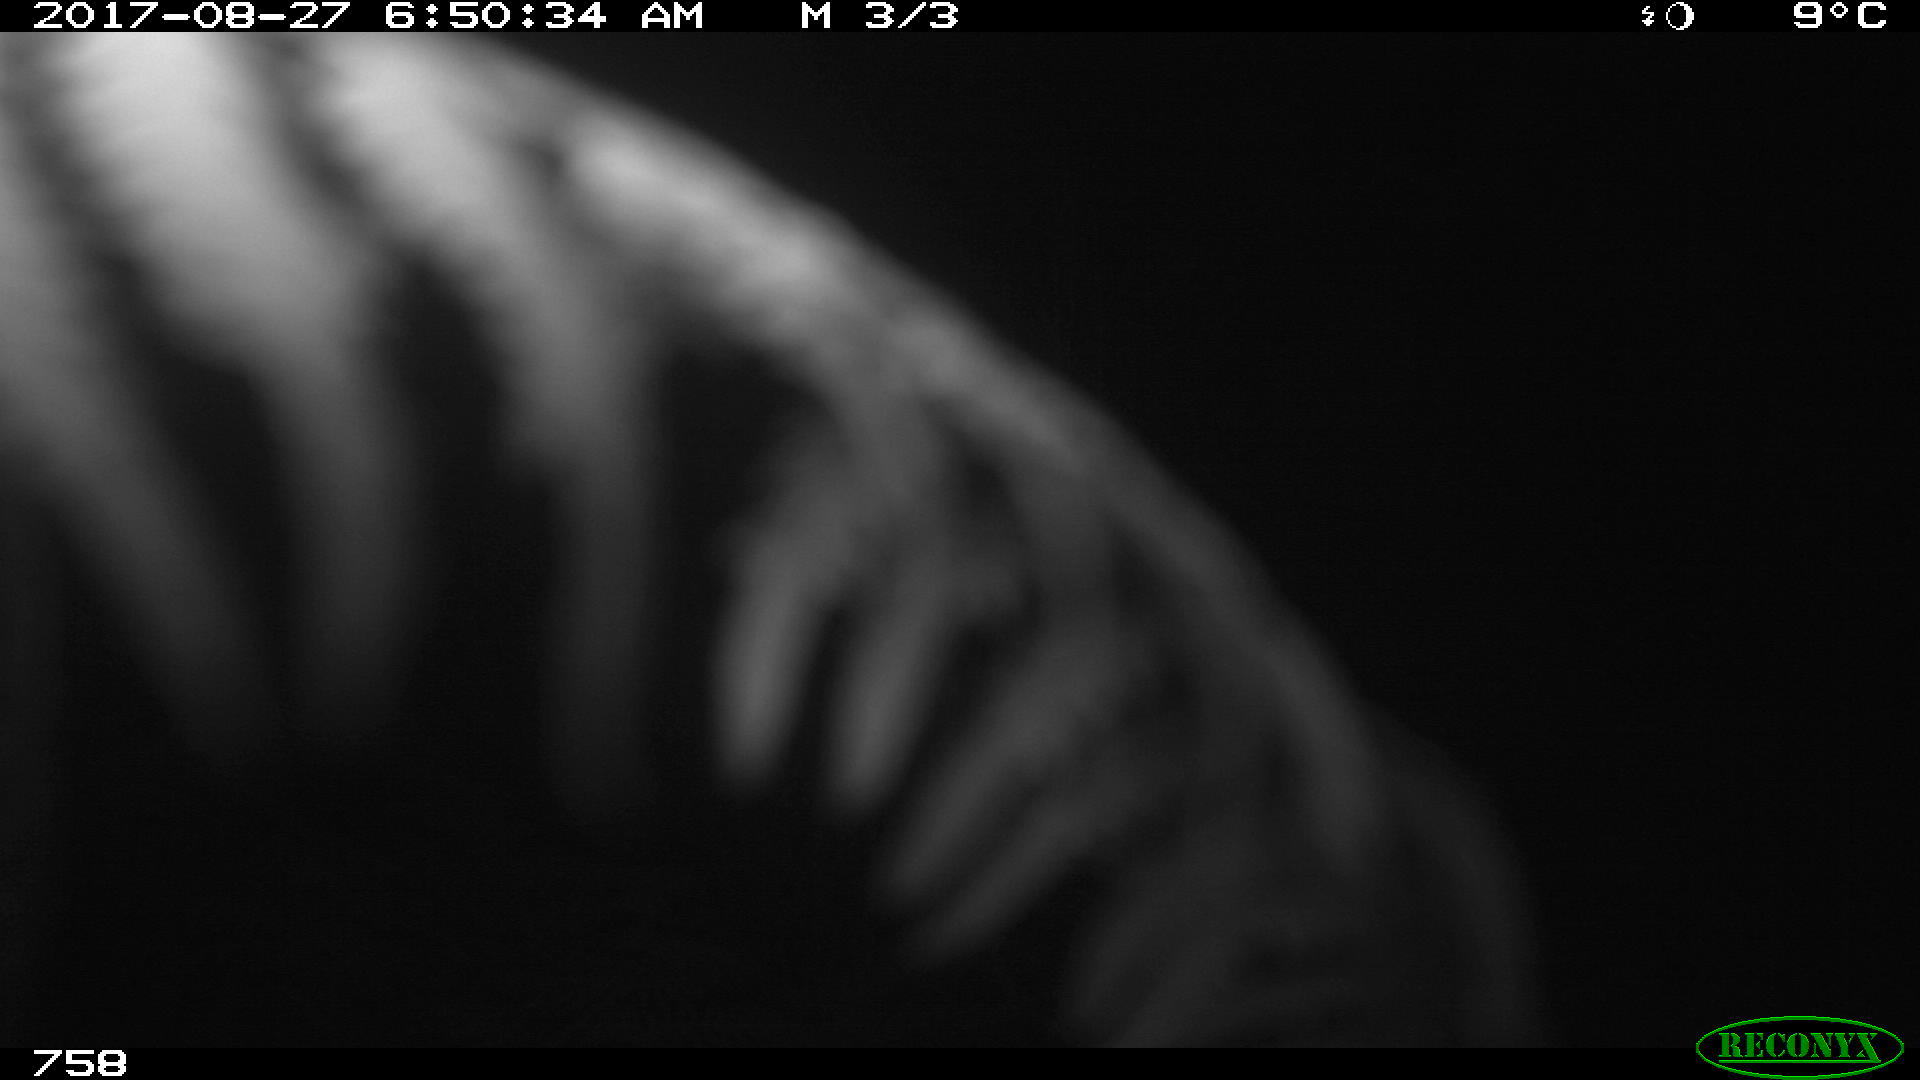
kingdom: Animalia
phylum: Chordata
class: Mammalia
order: Artiodactyla
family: Bovidae
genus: Bos
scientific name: Bos taurus
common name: Domesticated cattle
